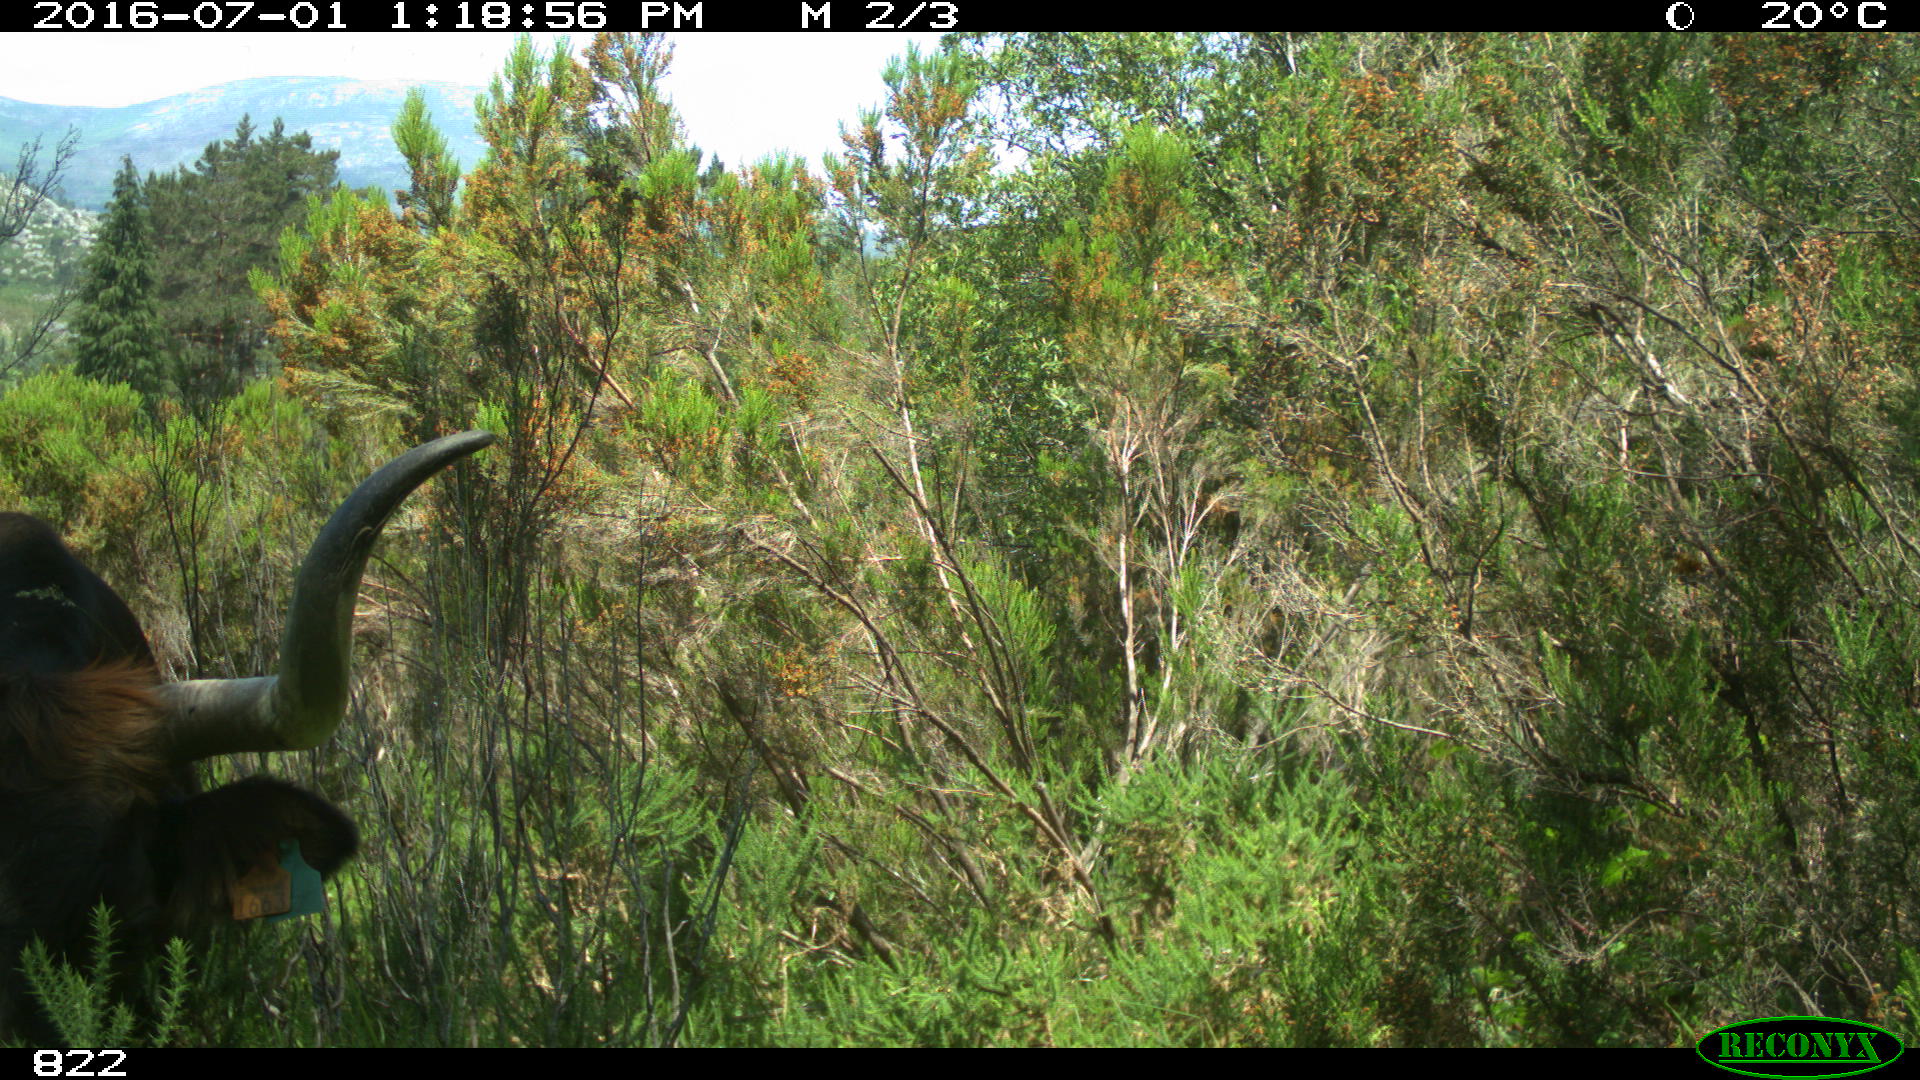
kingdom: Animalia
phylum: Chordata
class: Mammalia
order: Artiodactyla
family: Bovidae
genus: Bos
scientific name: Bos taurus
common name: Domesticated cattle
